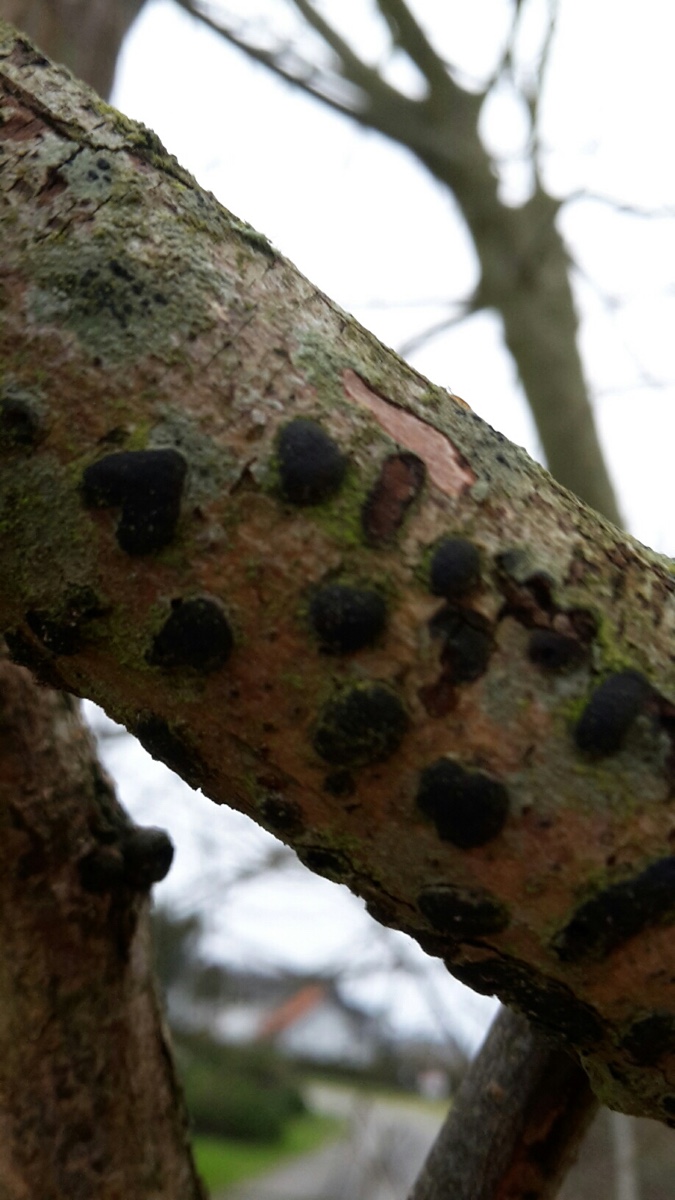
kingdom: Fungi
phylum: Ascomycota
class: Sordariomycetes
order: Xylariales
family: Diatrypaceae
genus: Diatrype
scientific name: Diatrype bullata
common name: pile-kulskorpe
